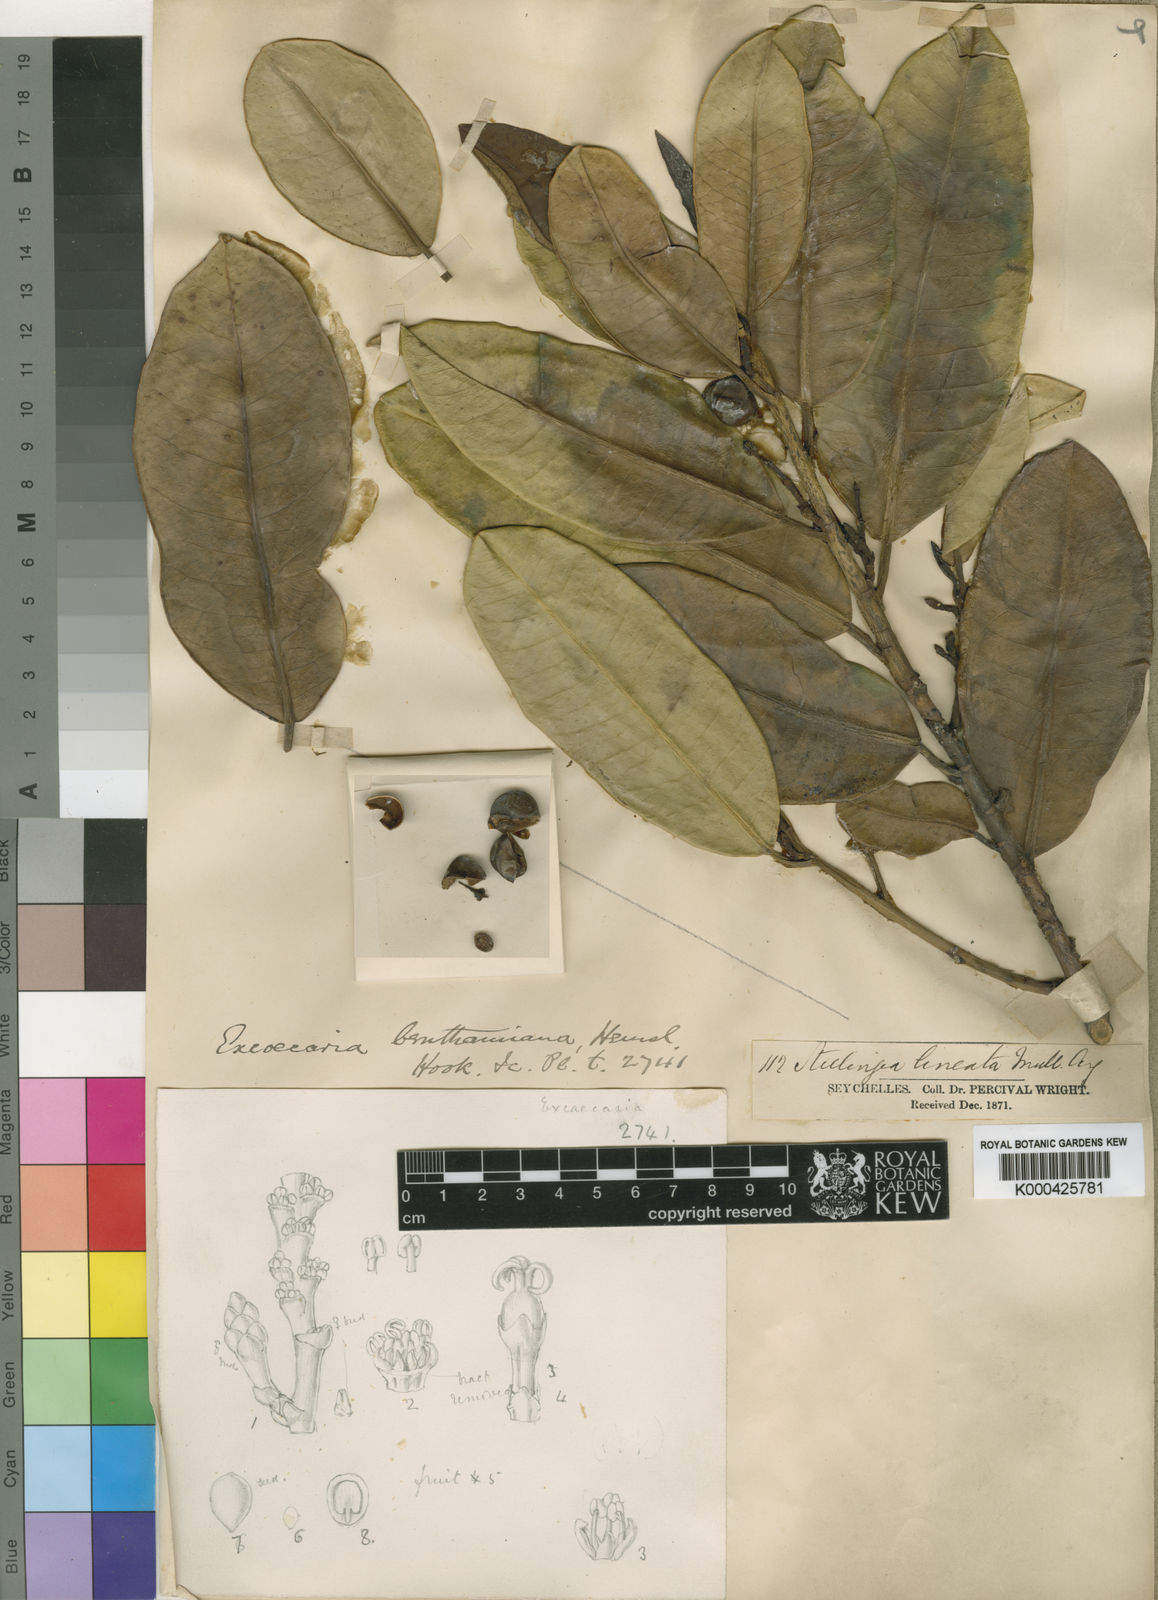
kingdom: Plantae
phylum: Tracheophyta
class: Magnoliopsida
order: Malpighiales
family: Euphorbiaceae
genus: Excoecaria
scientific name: Excoecaria benthamiana
